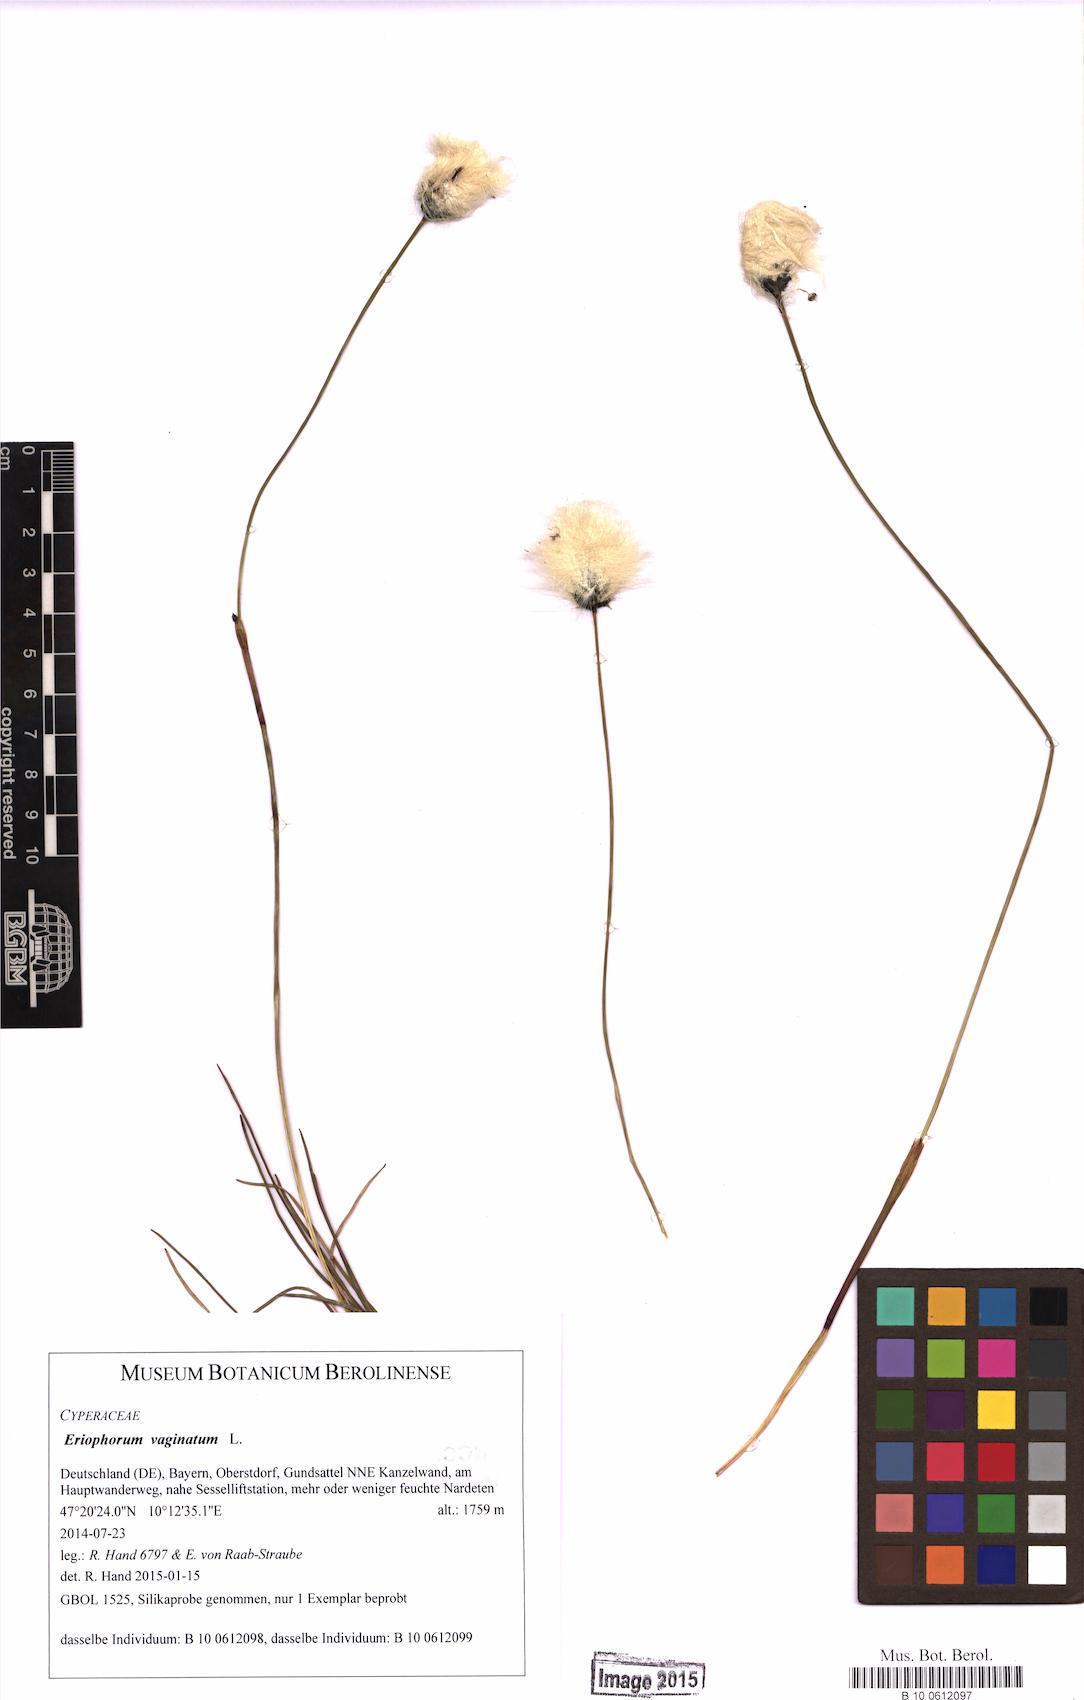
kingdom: Plantae
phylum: Tracheophyta
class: Liliopsida
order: Poales
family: Cyperaceae
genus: Eriophorum
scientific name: Eriophorum vaginatum
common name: Hare's-tail cottongrass
